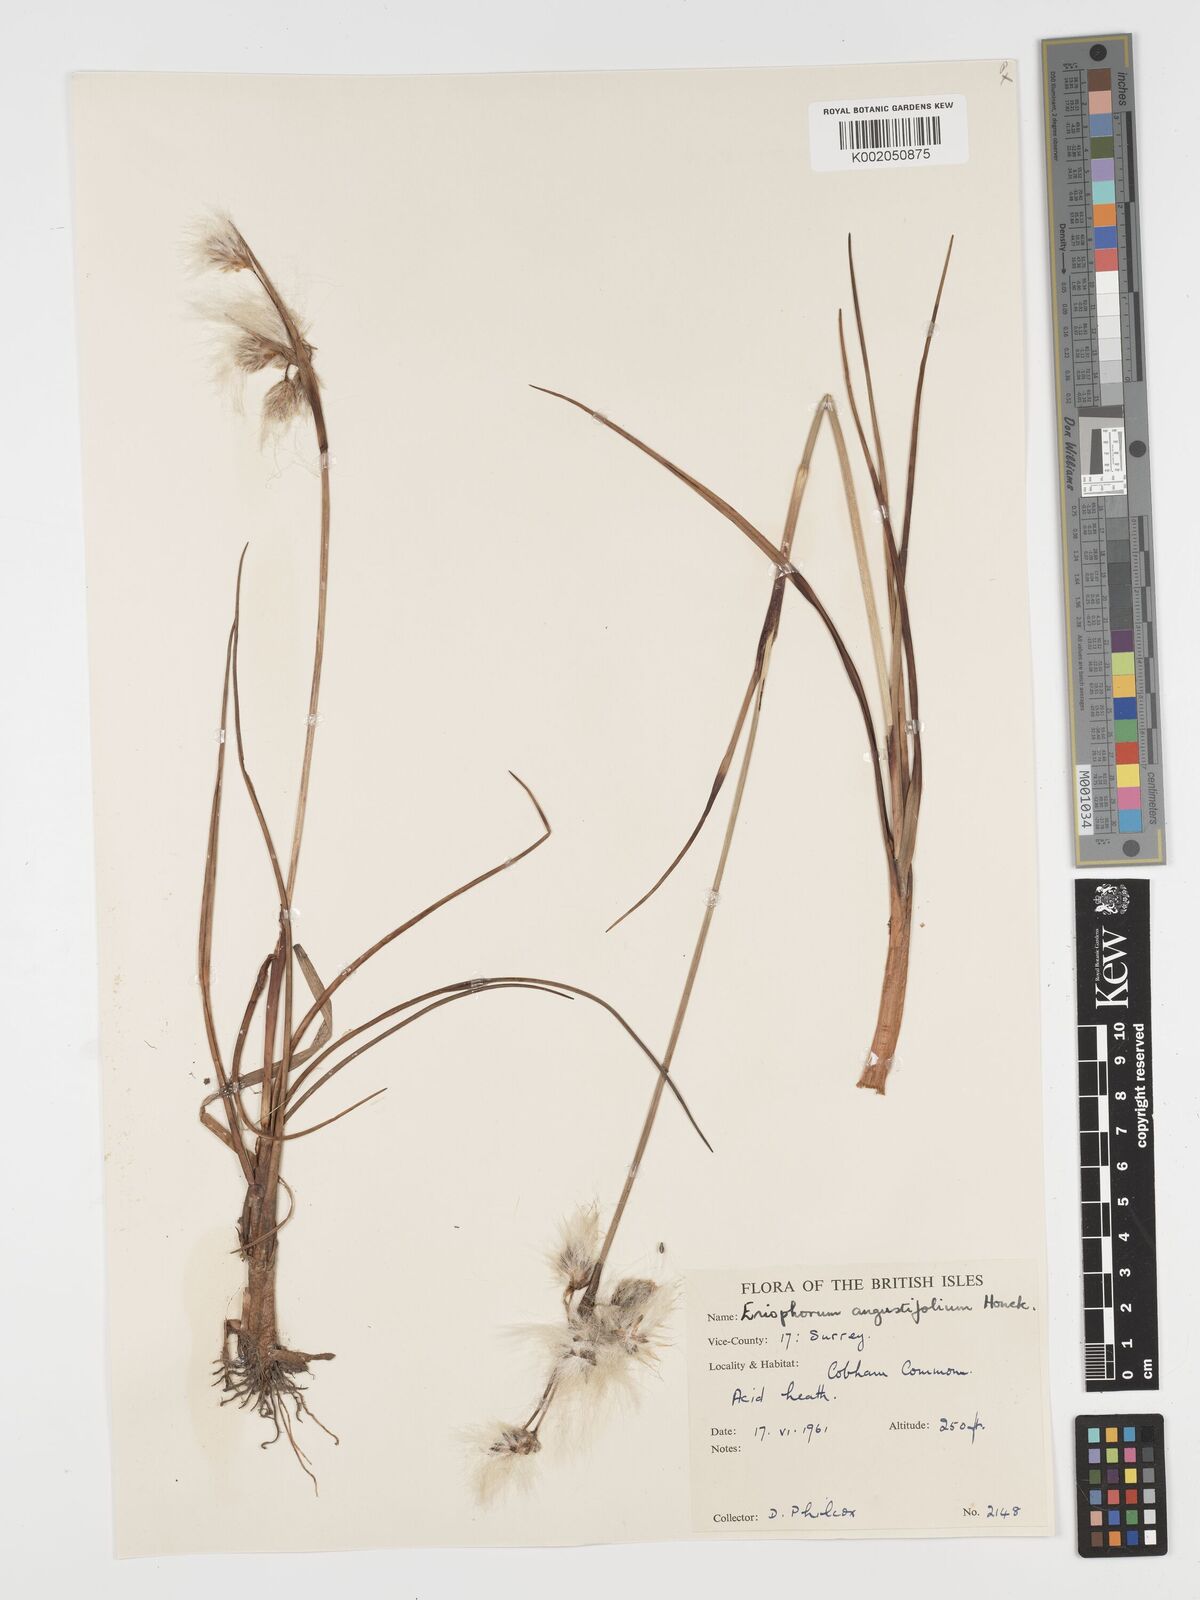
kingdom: Plantae
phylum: Tracheophyta
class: Liliopsida
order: Poales
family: Cyperaceae
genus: Eriophorum
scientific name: Eriophorum angustifolium
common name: Common cottongrass
